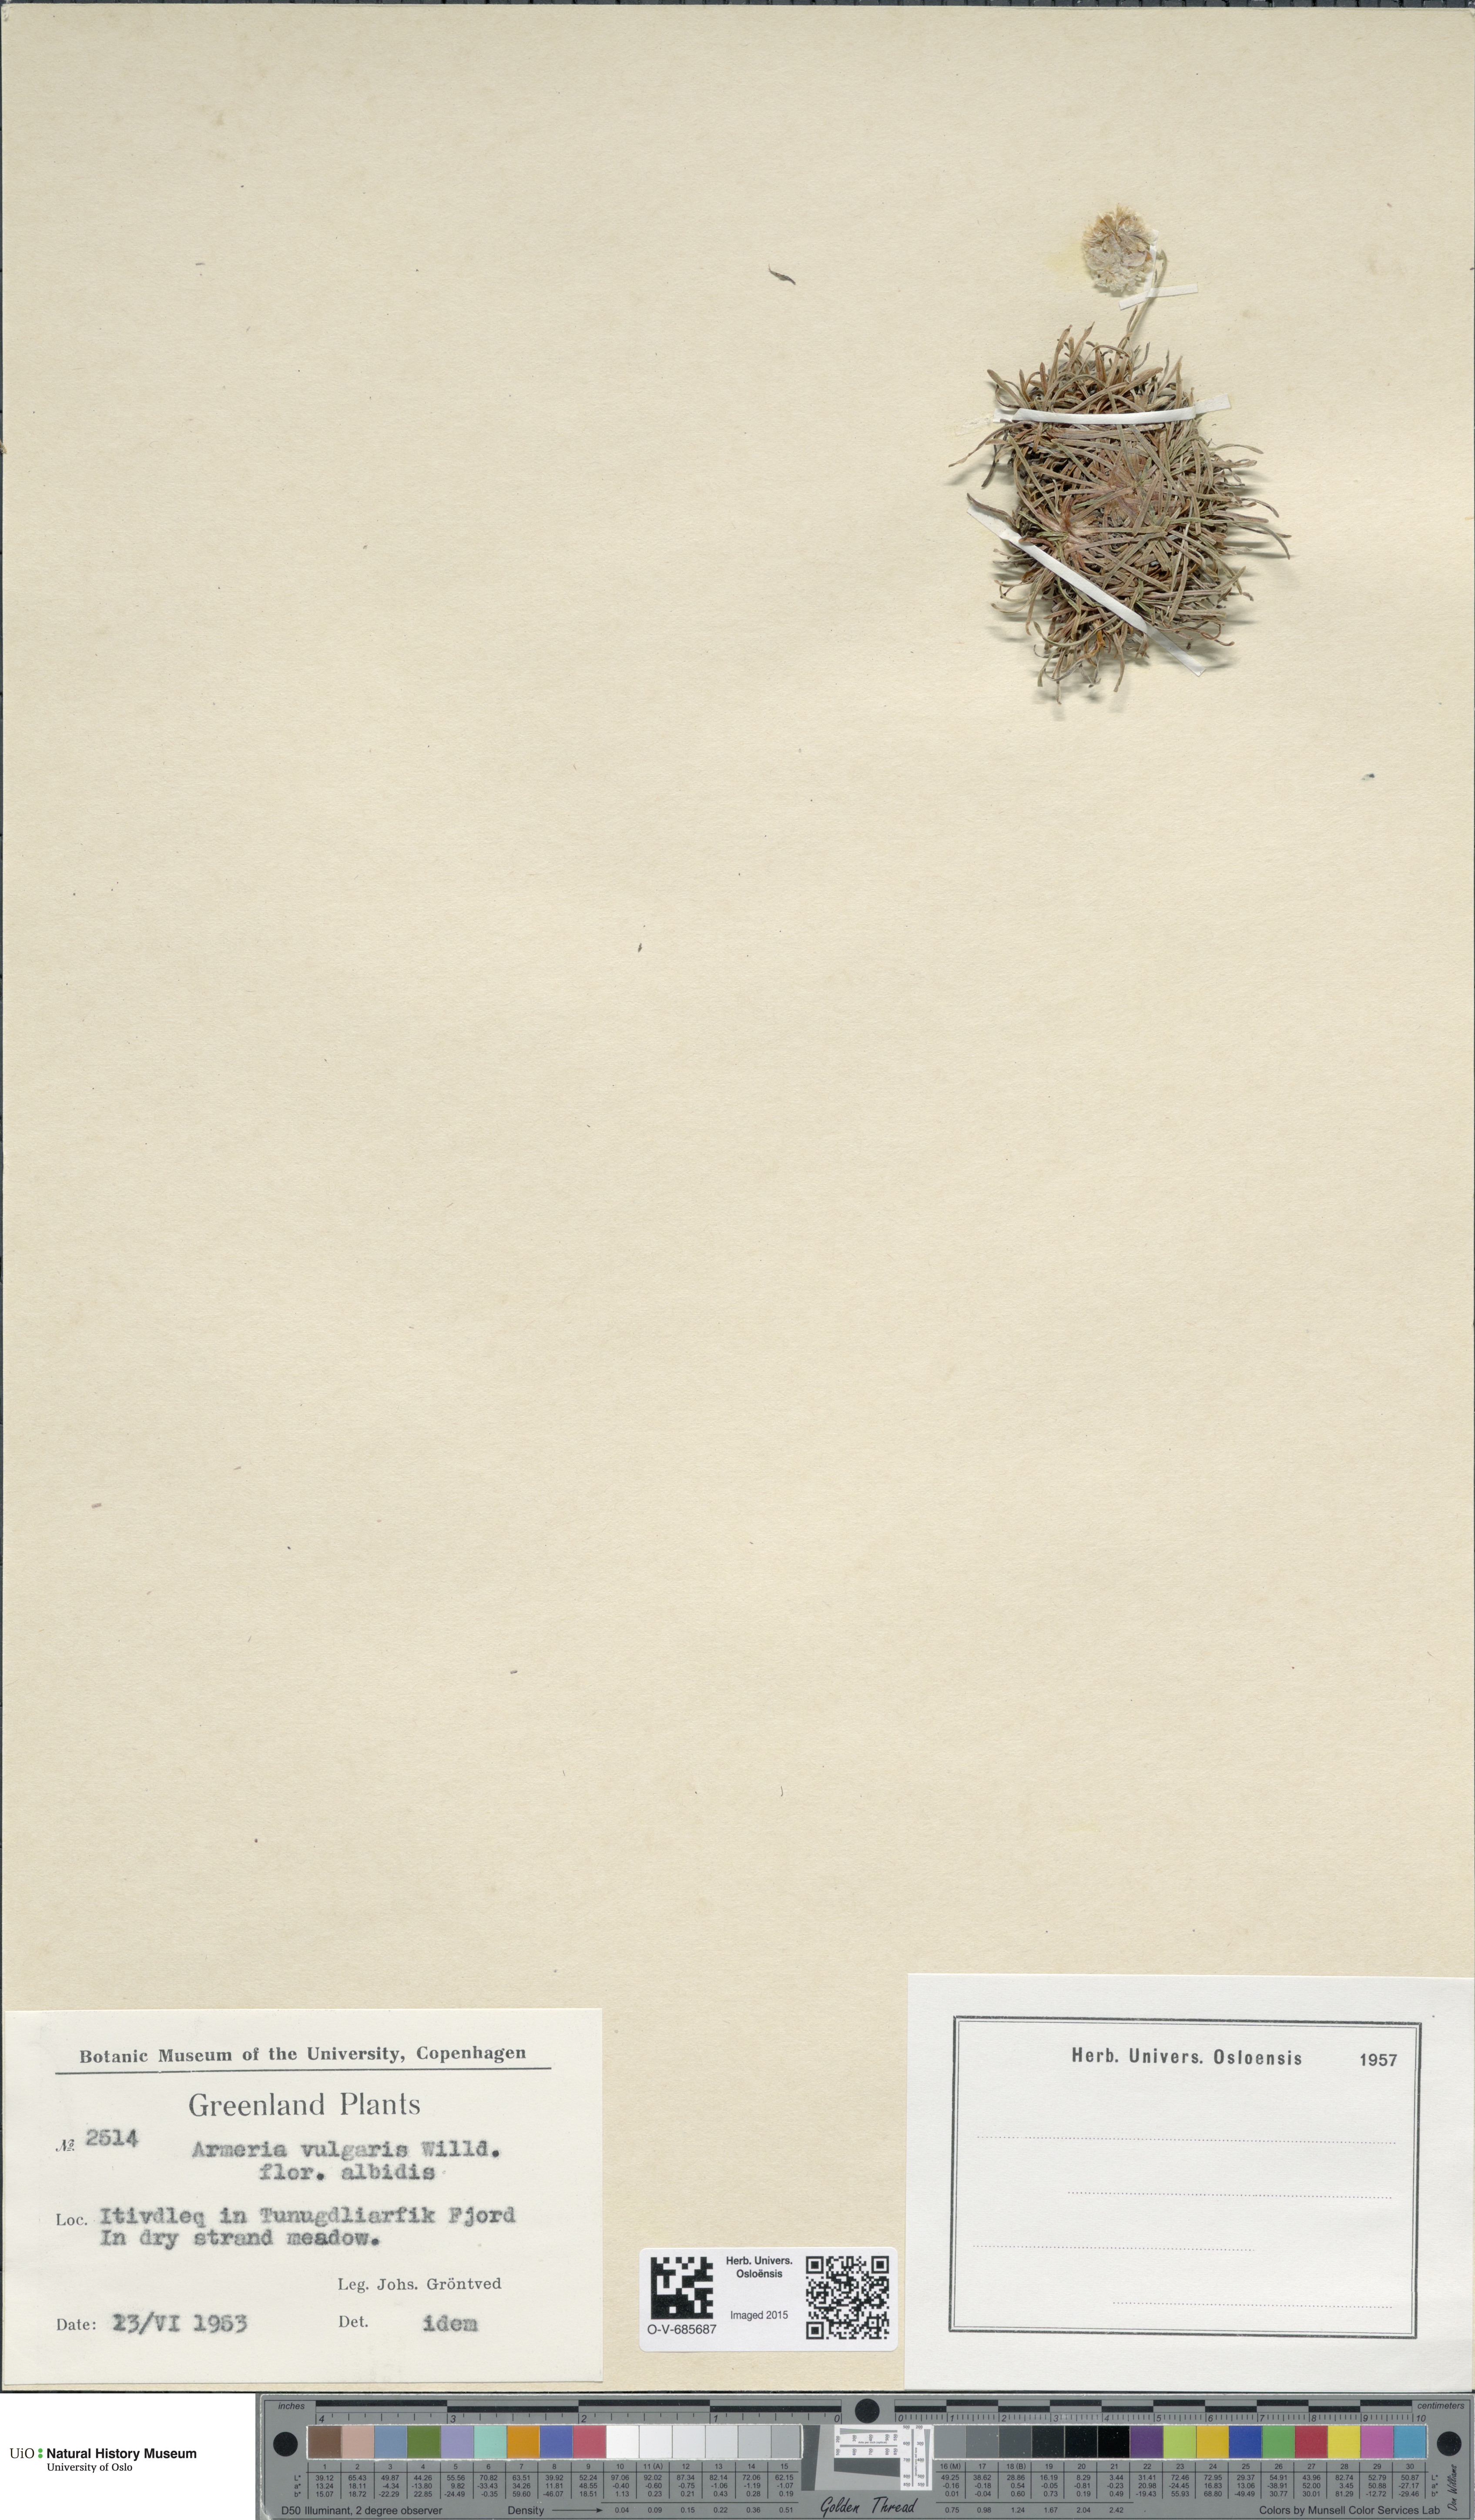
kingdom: Plantae
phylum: Tracheophyta
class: Magnoliopsida
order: Caryophyllales
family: Plumbaginaceae
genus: Armeria
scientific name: Armeria maritima
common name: Thrift
